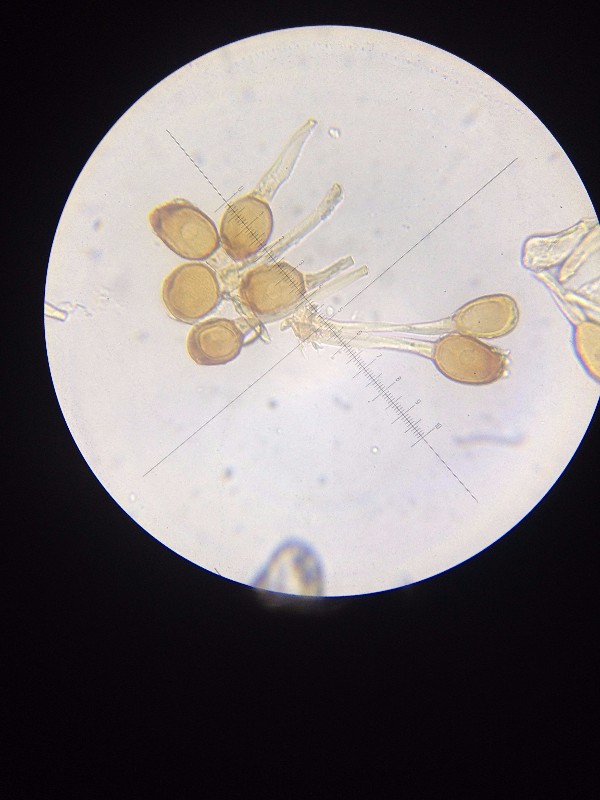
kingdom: Fungi
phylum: Basidiomycota
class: Pucciniomycetes
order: Pucciniales
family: Pucciniaceae
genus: Uromyces
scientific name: Uromyces limonii
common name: hindebæger-encellerust
